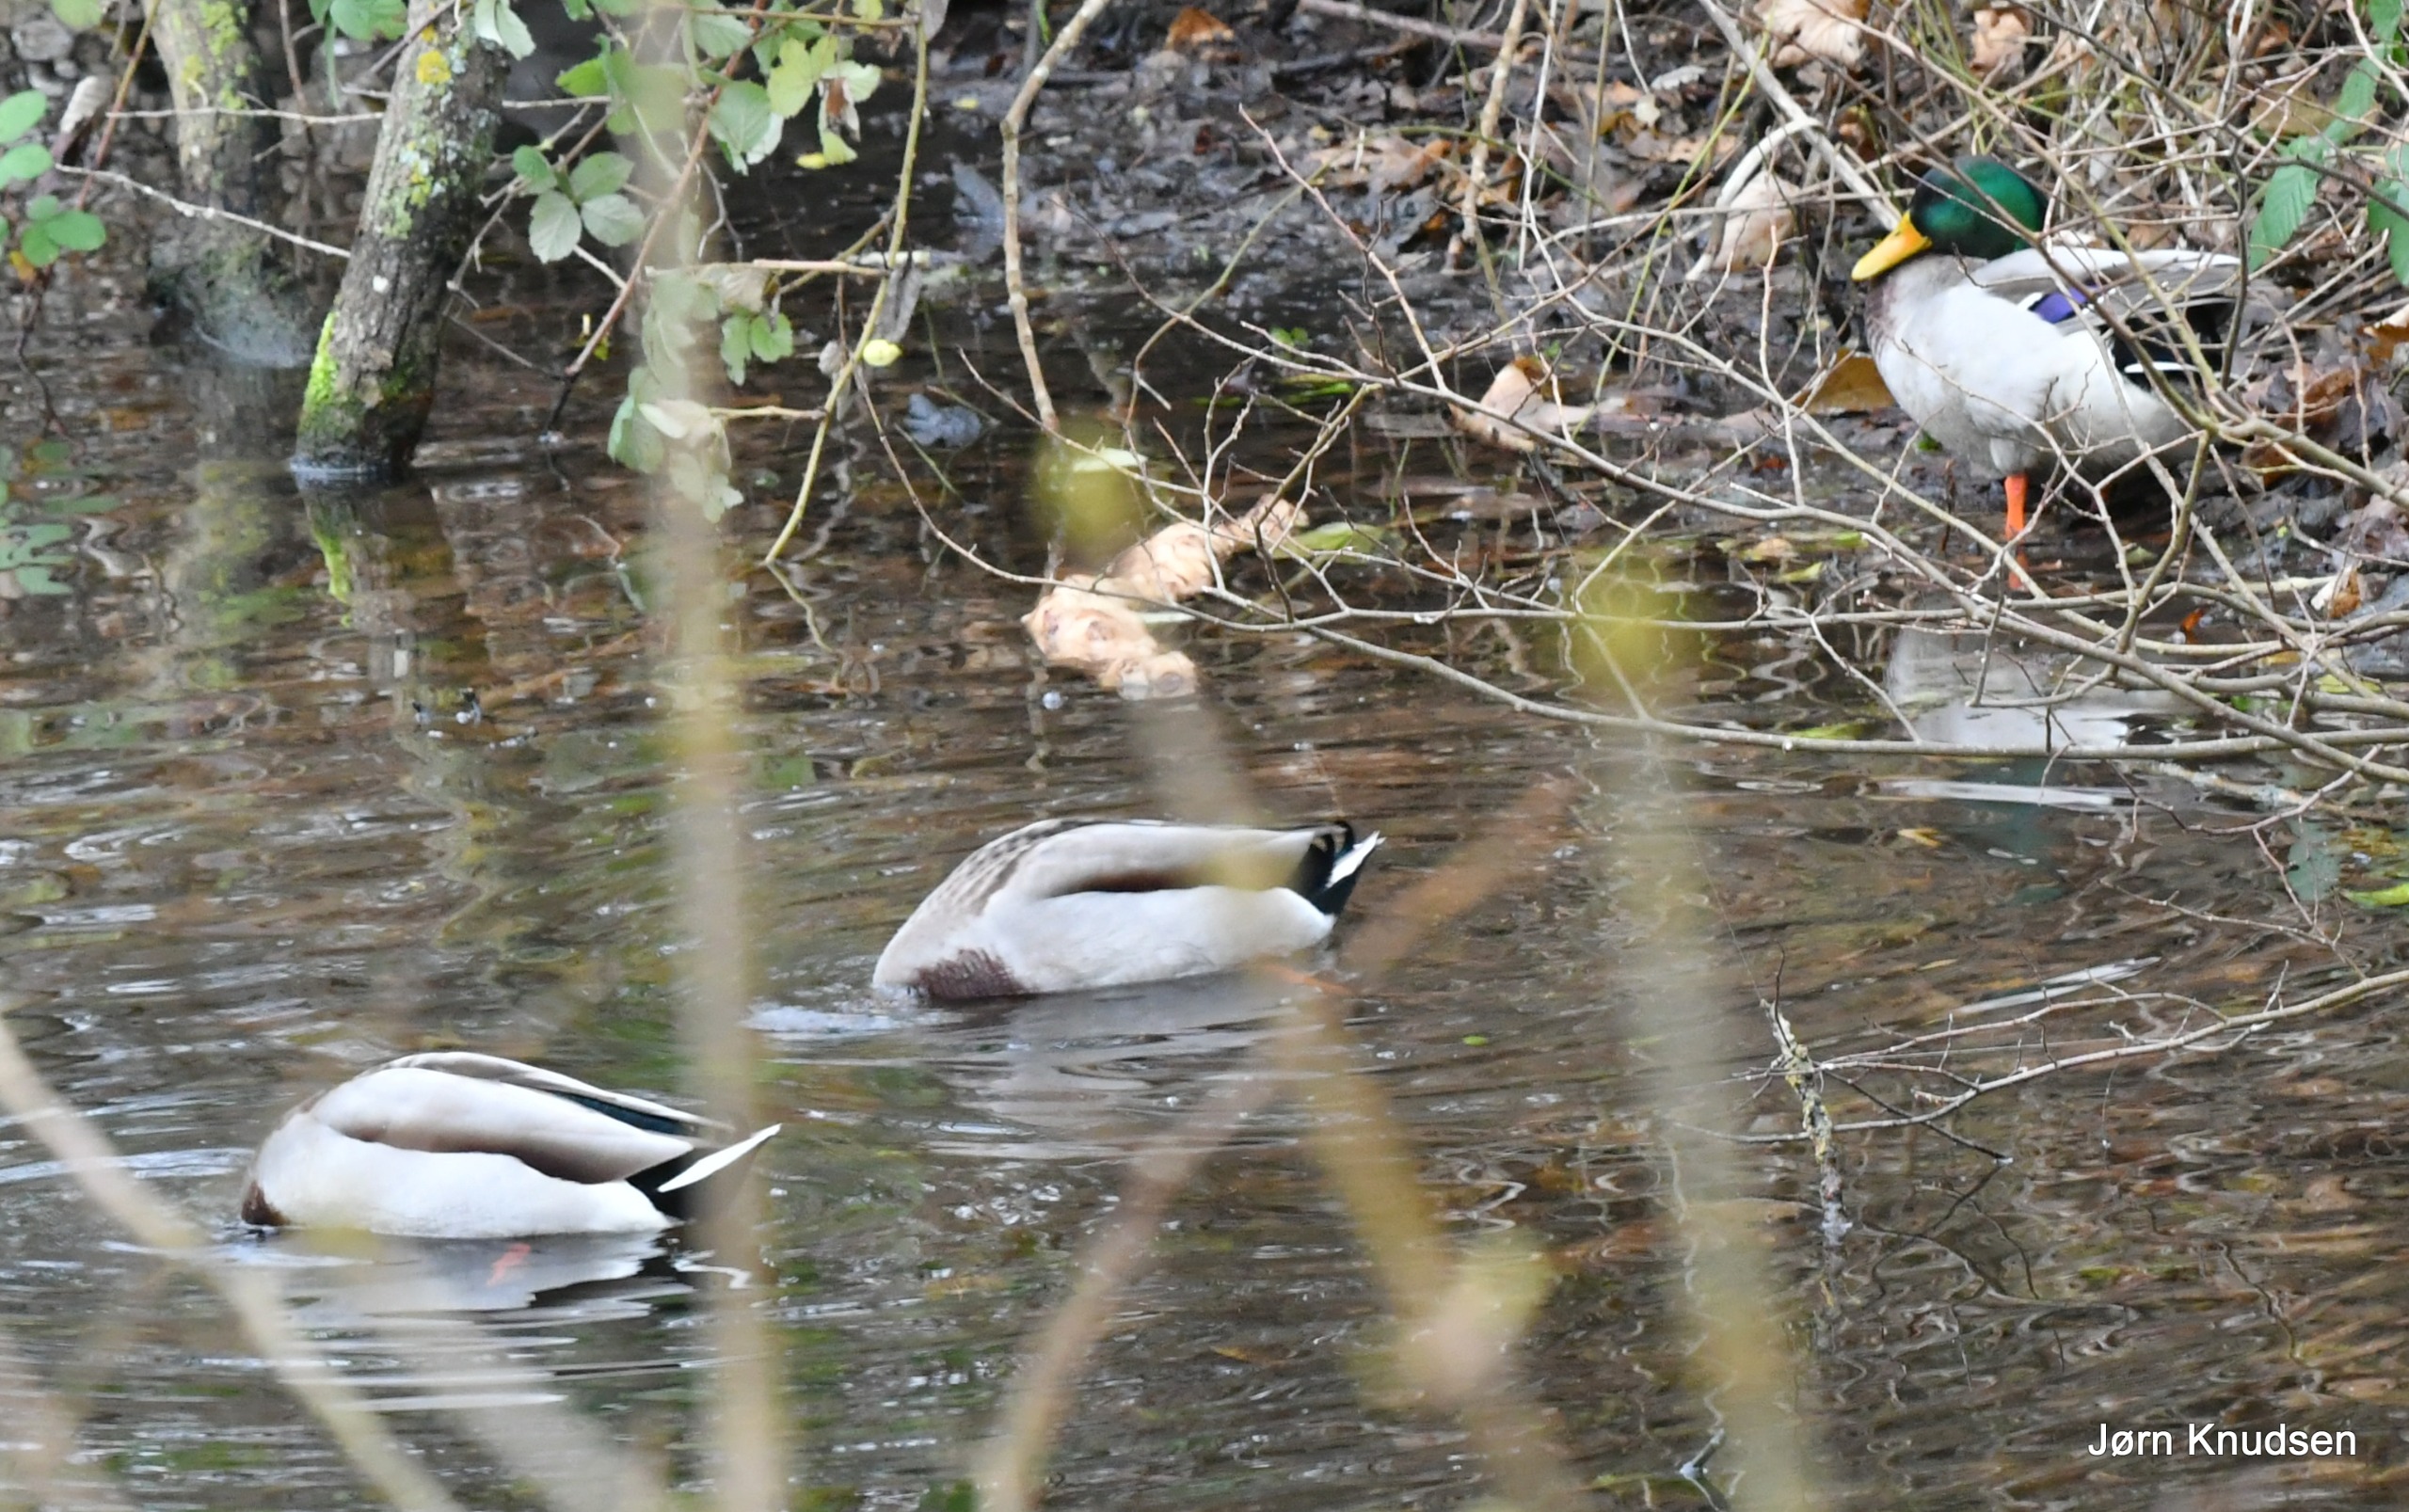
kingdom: Animalia
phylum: Chordata
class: Aves
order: Anseriformes
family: Anatidae
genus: Anas
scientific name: Anas platyrhynchos
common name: Gråand
